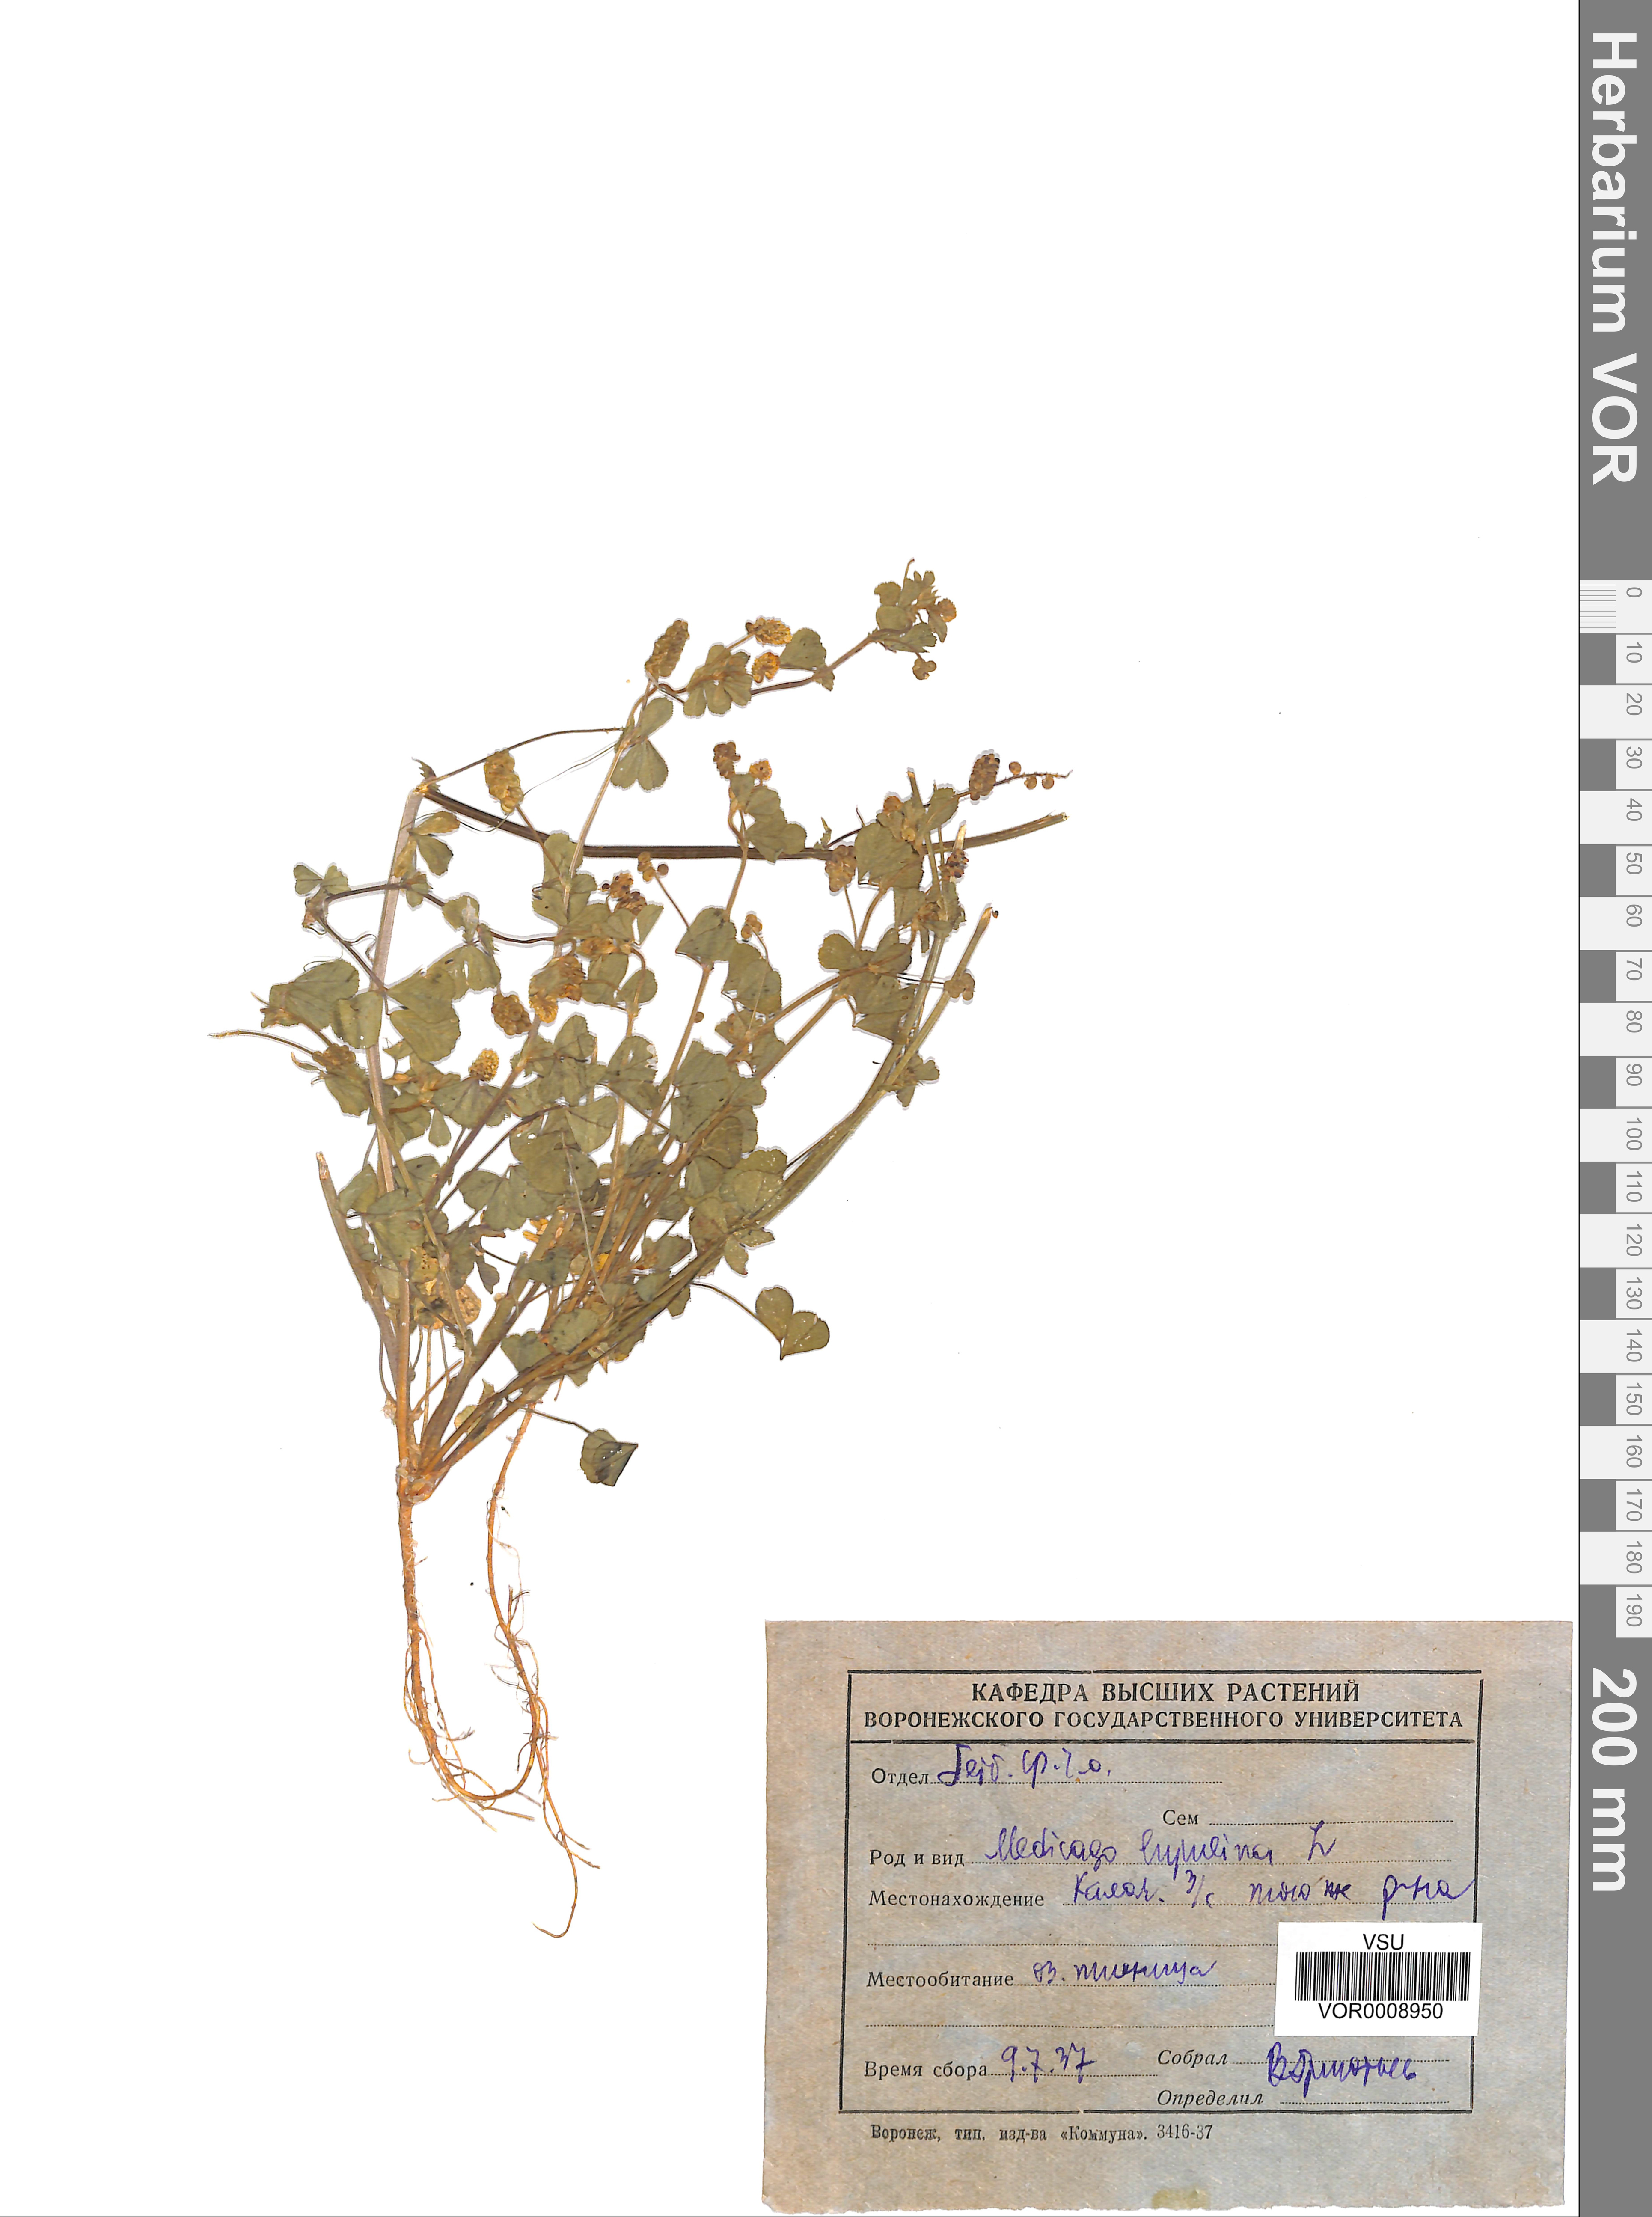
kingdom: Plantae
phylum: Tracheophyta
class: Magnoliopsida
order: Fabales
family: Fabaceae
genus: Medicago
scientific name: Medicago lupulina
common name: Black medick
